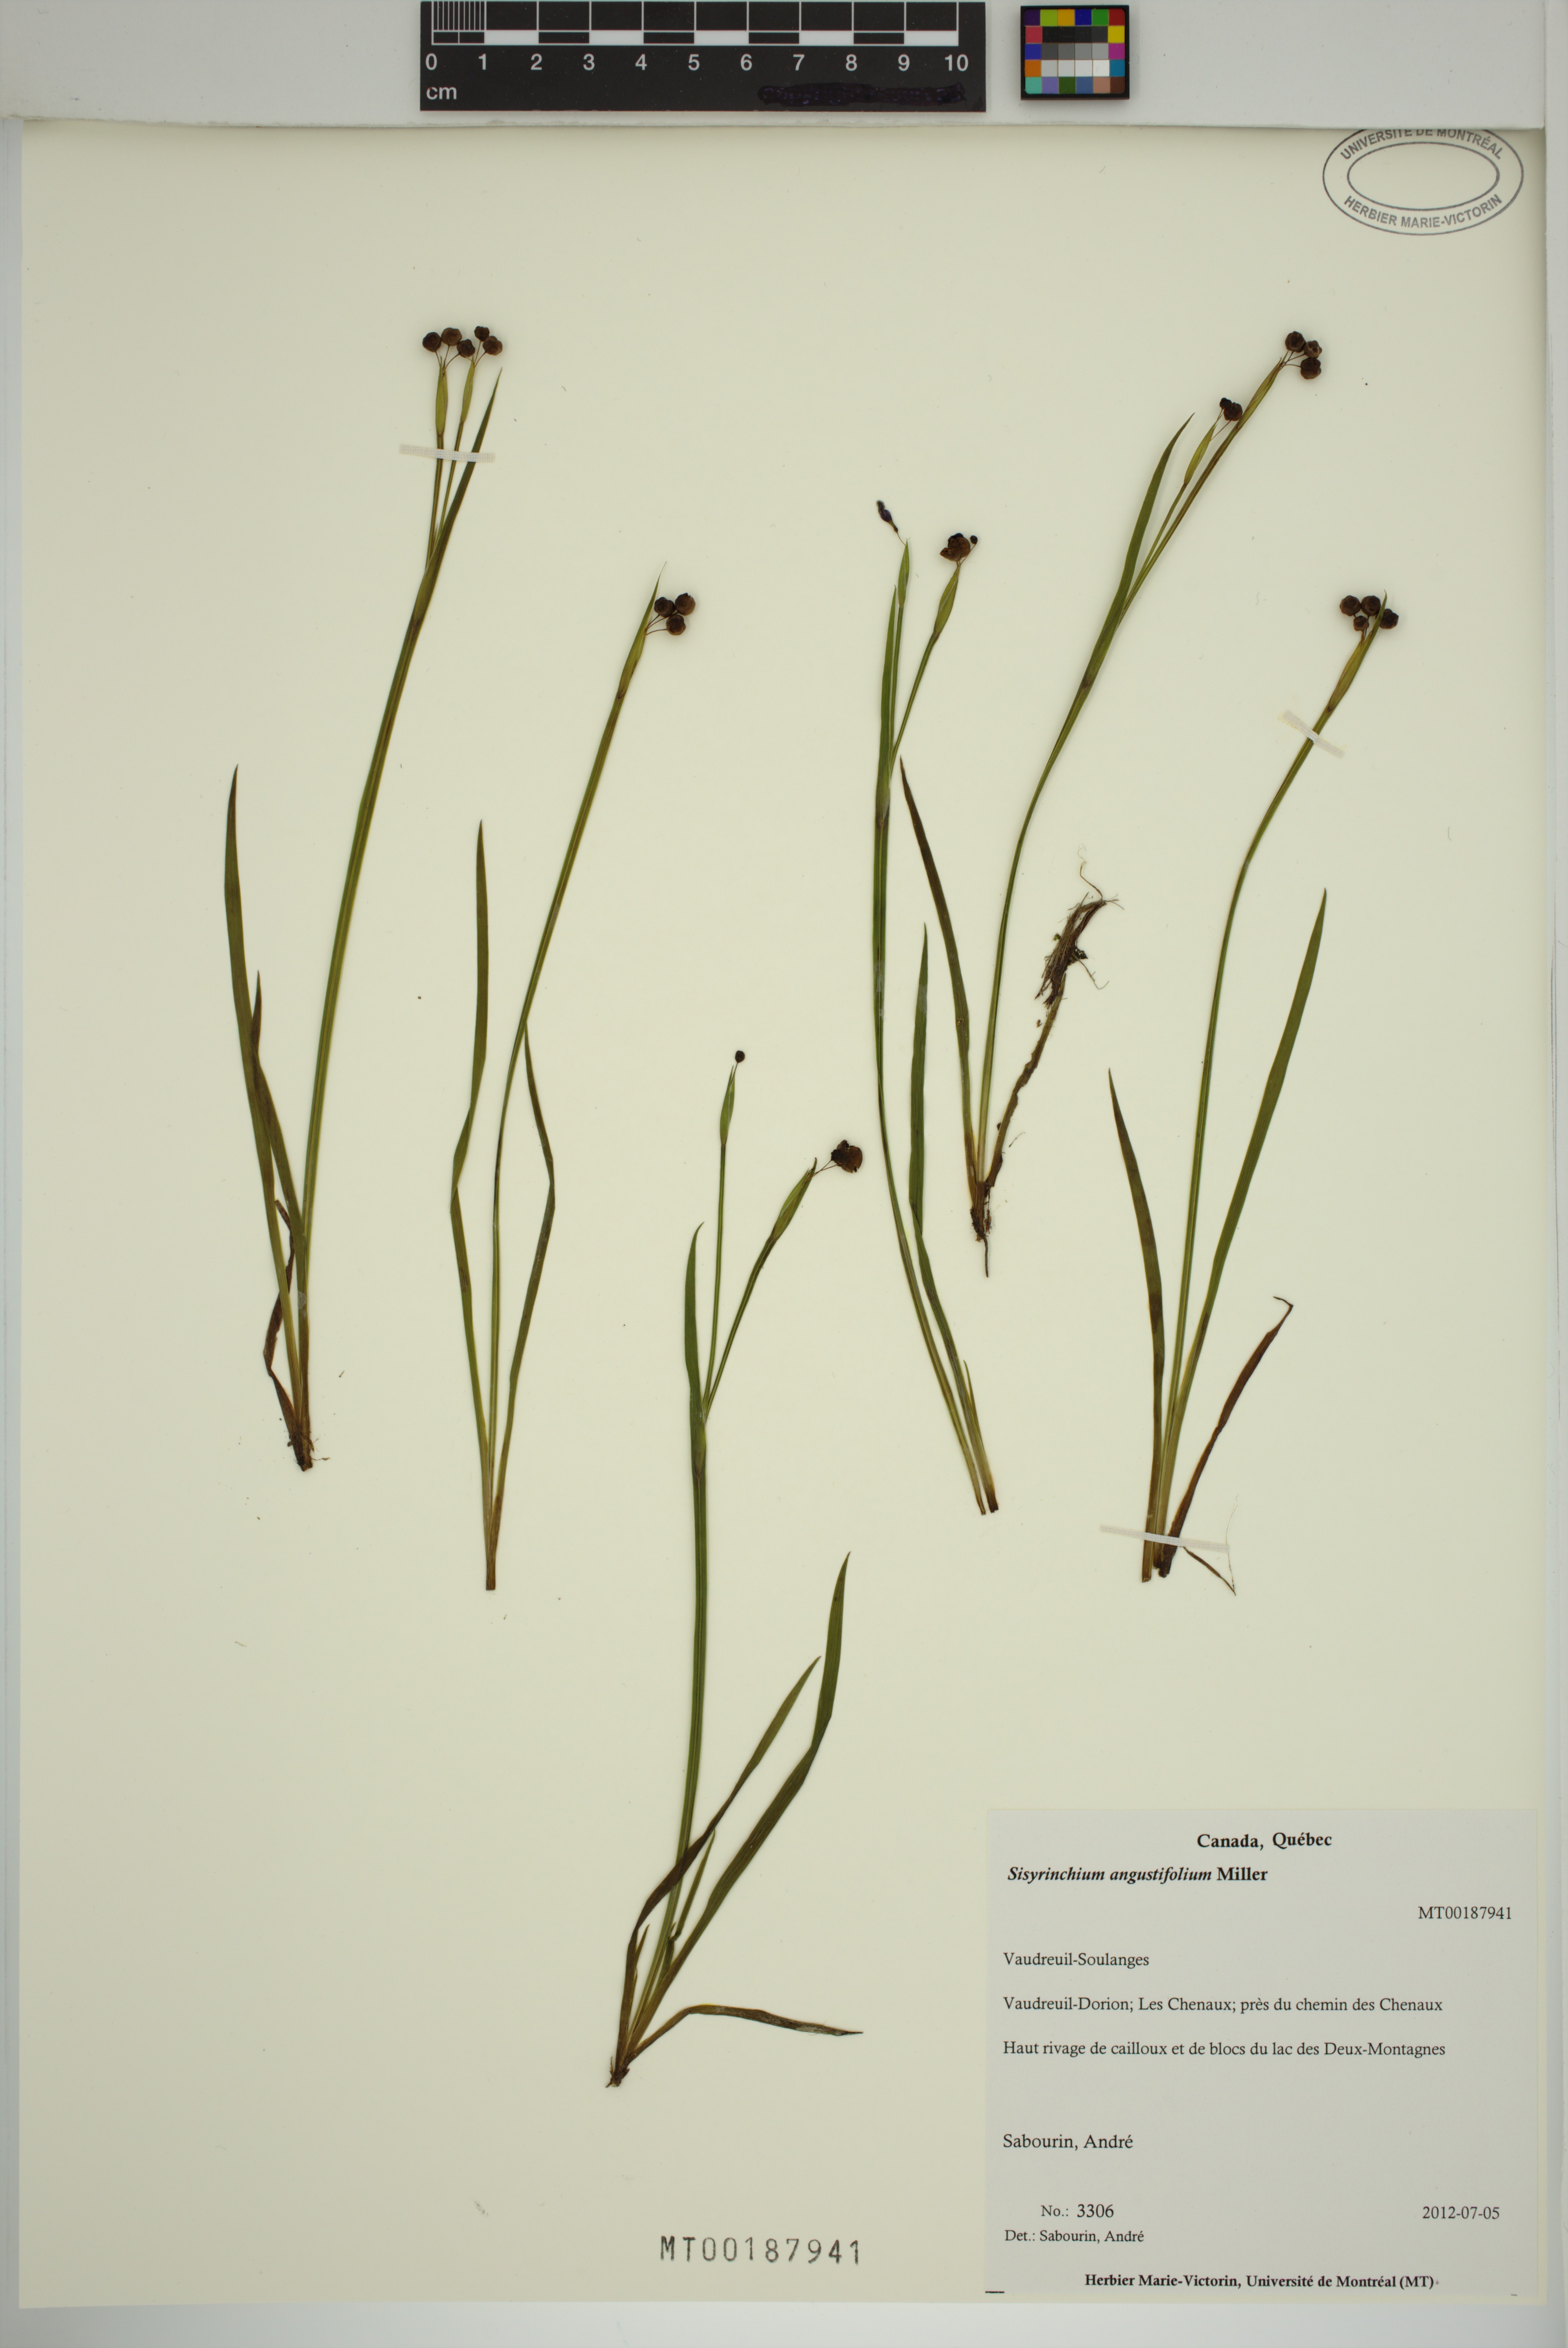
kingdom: Plantae
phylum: Tracheophyta
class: Liliopsida
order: Asparagales
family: Iridaceae
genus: Sisyrinchium
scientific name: Sisyrinchium angustifolium
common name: Narrow-leaf blue-eyed-grass
